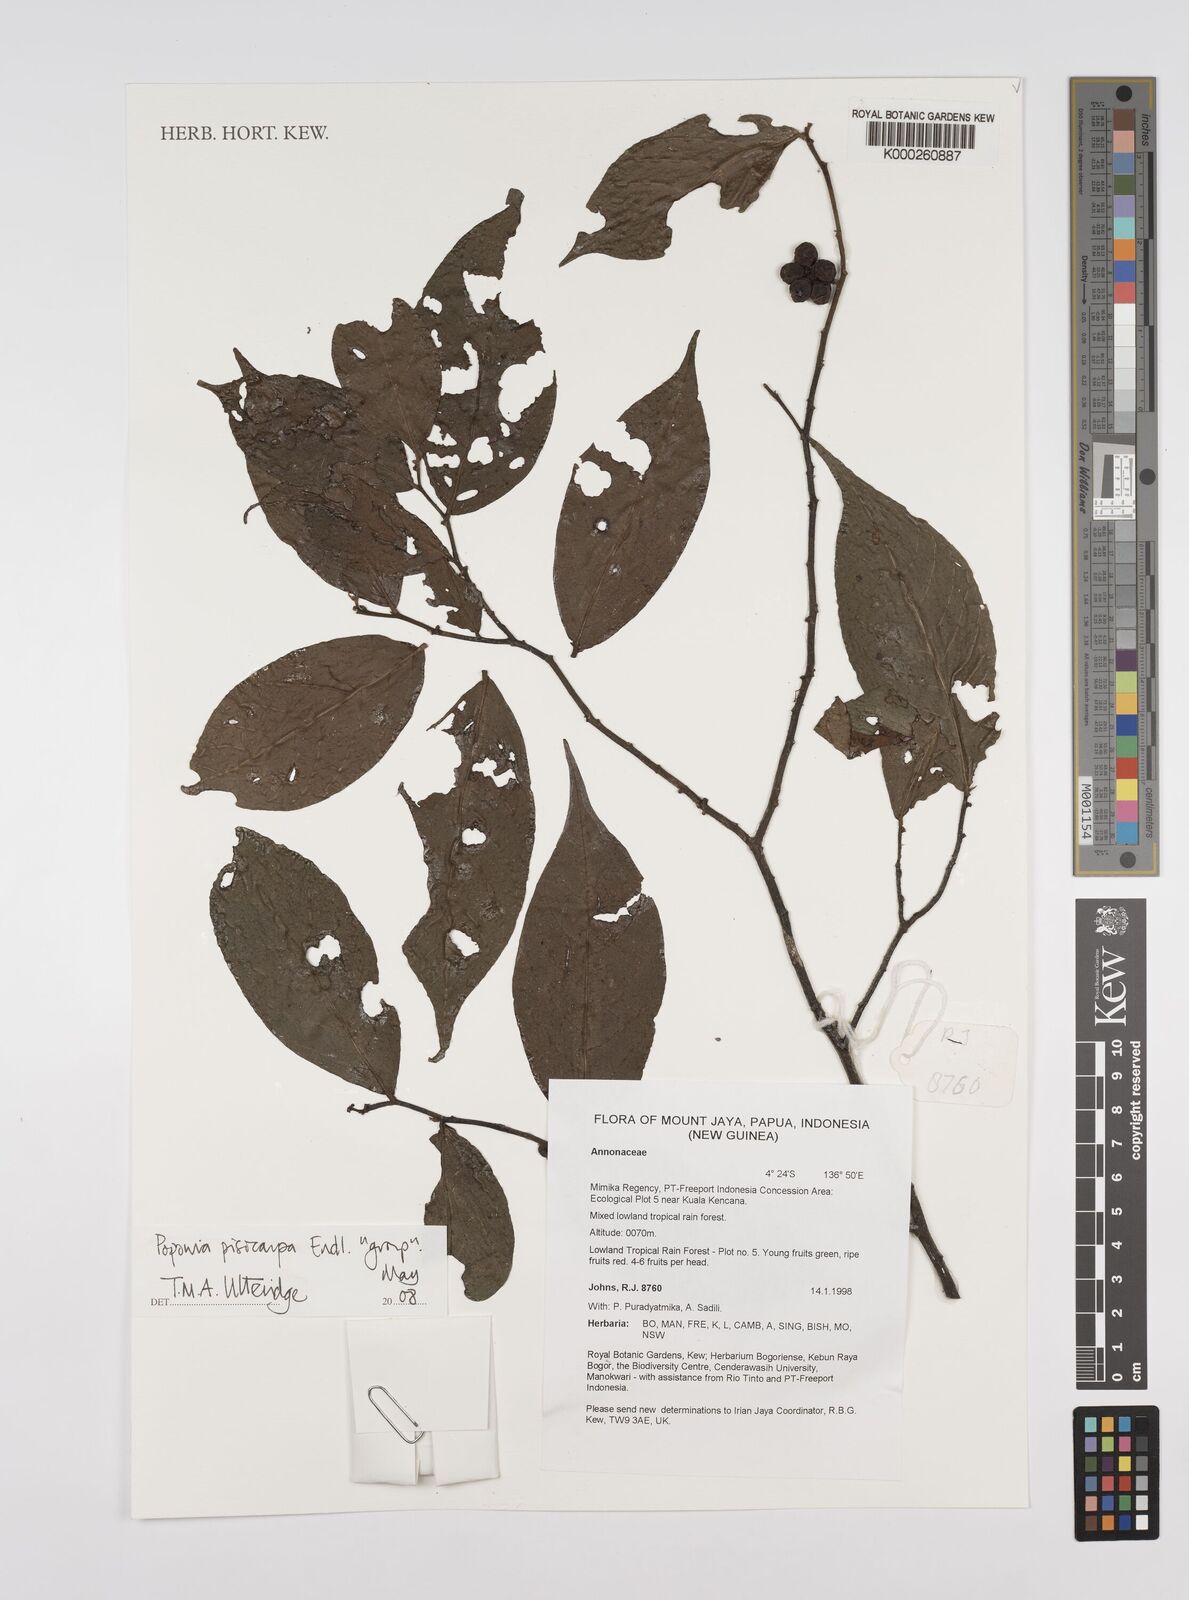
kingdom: Plantae
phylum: Tracheophyta
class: Magnoliopsida
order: Magnoliales
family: Annonaceae
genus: Popowia
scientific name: Popowia
